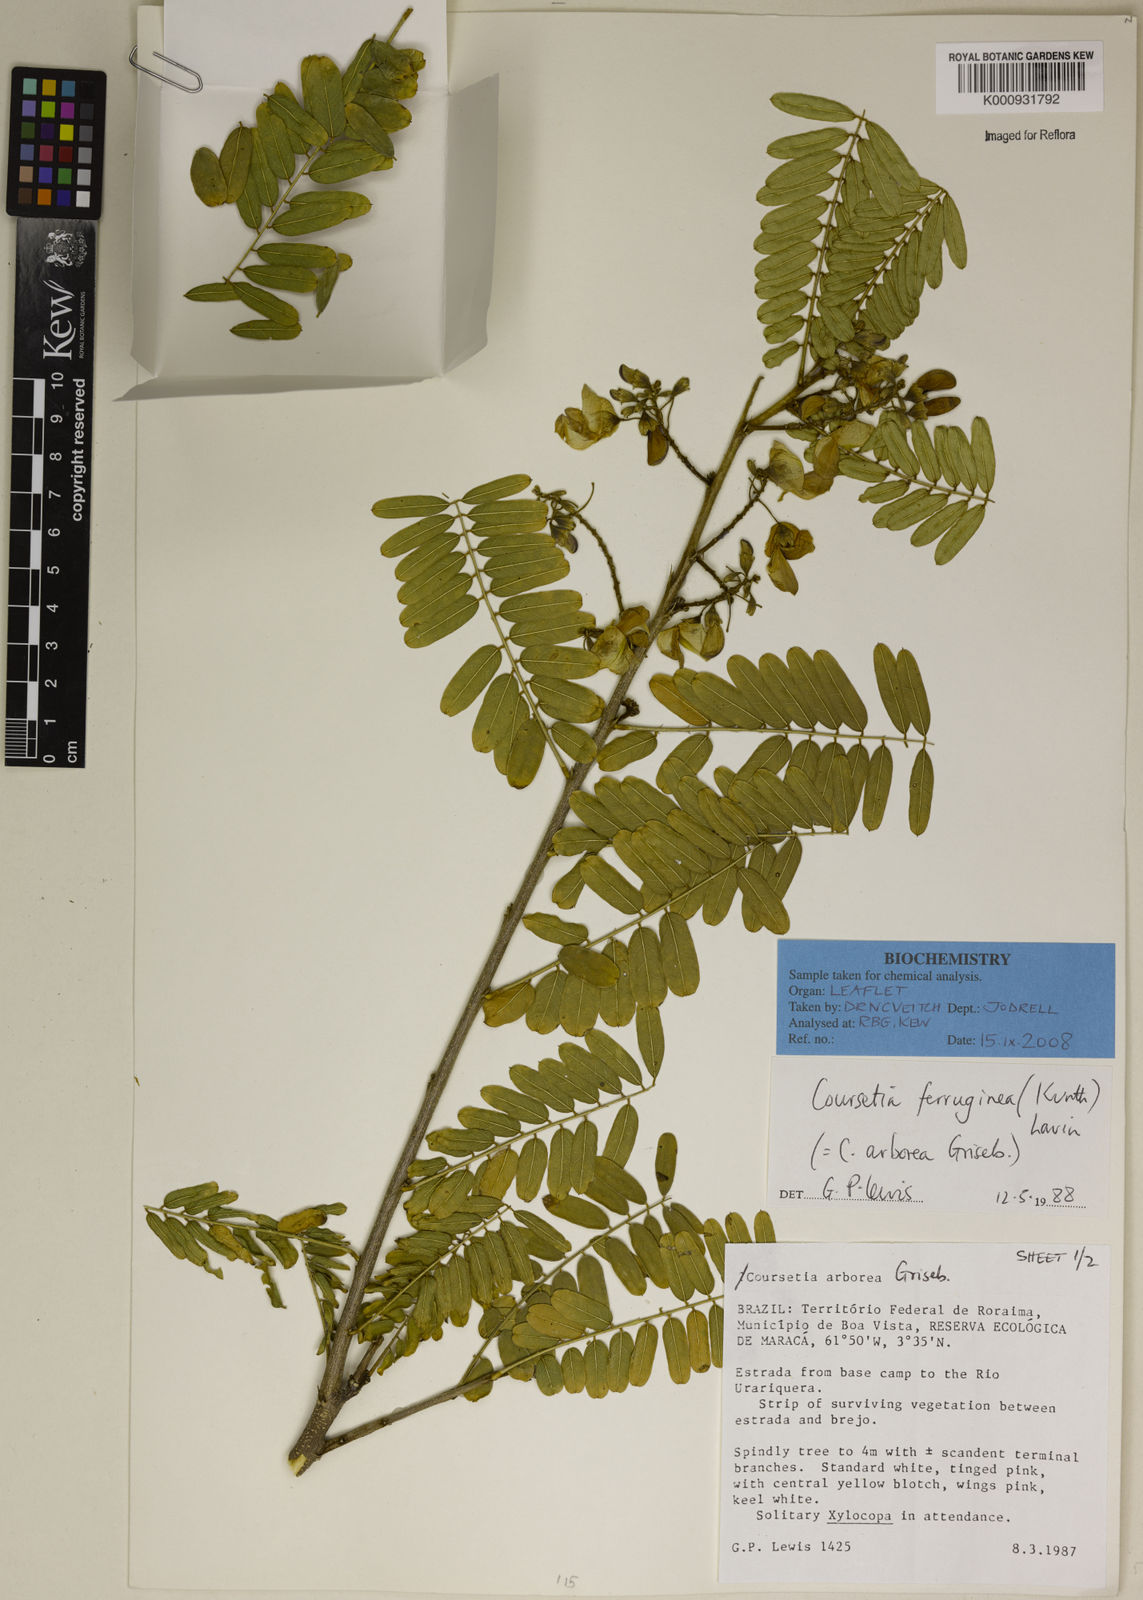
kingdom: Plantae
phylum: Tracheophyta
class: Magnoliopsida
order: Fabales
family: Fabaceae
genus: Coursetia
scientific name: Coursetia ferruginea
